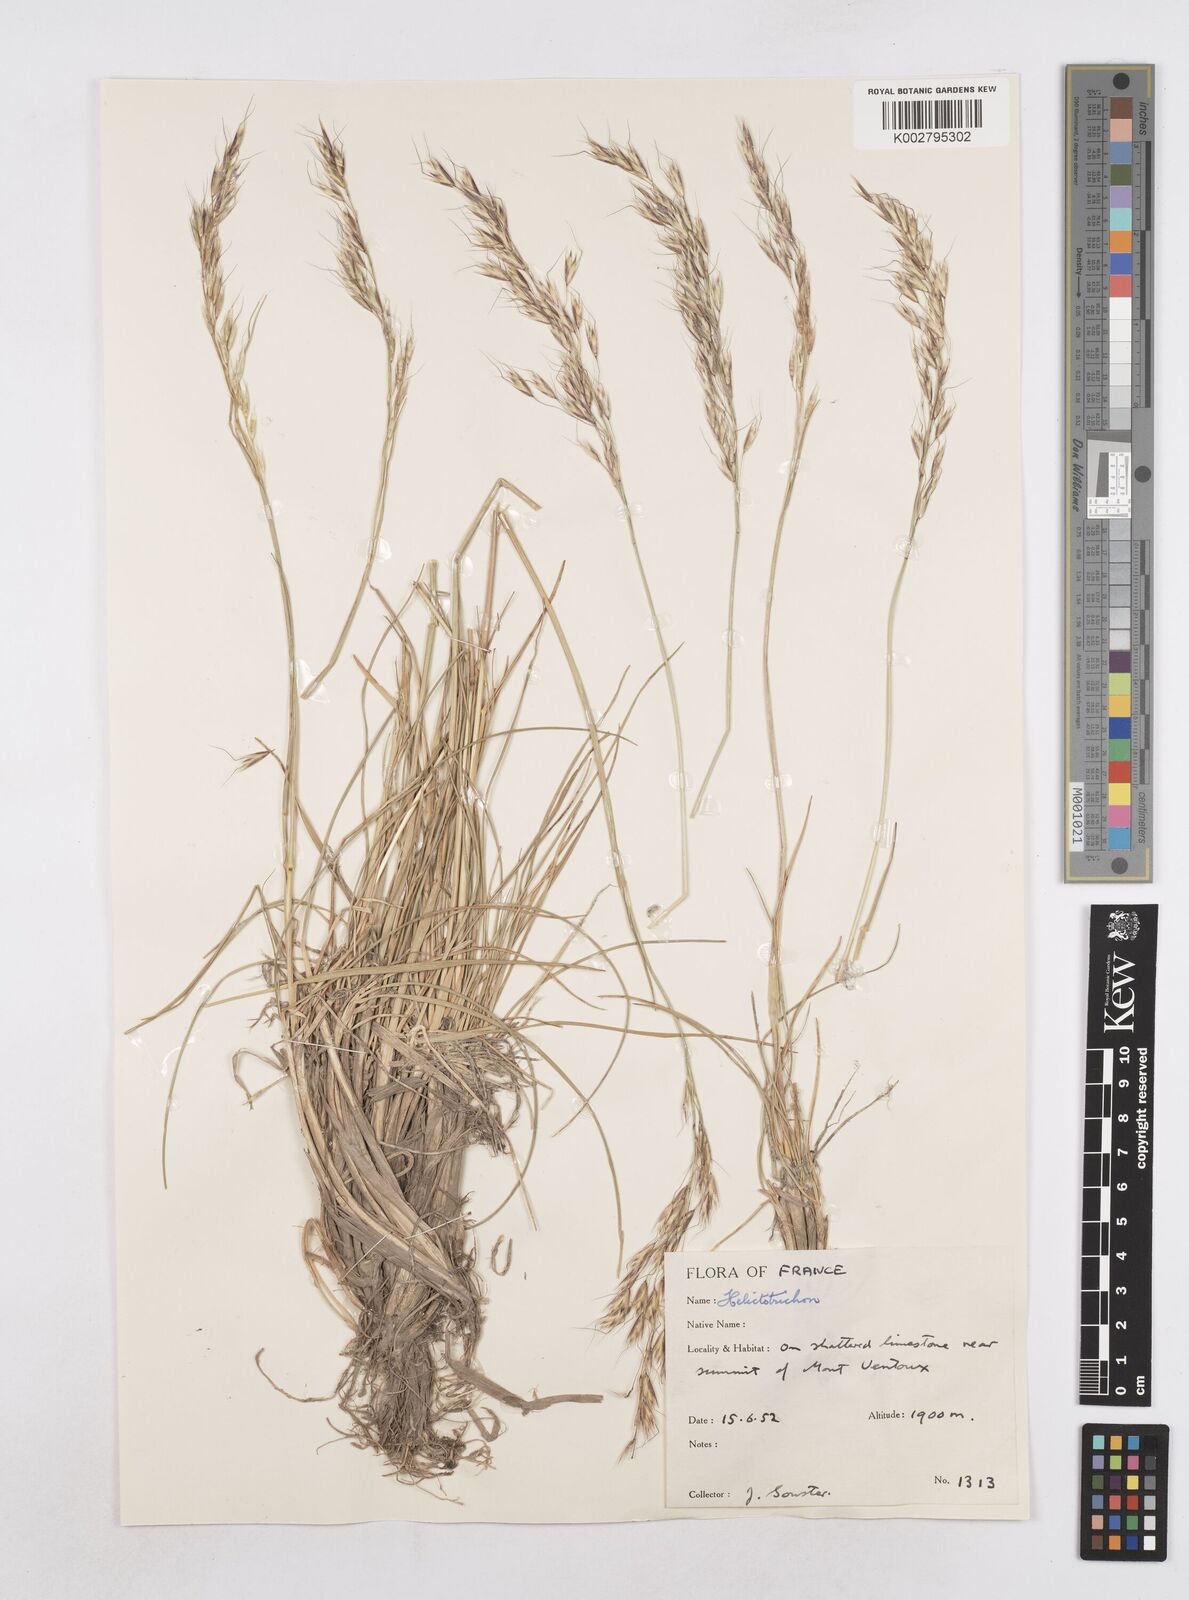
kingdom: Plantae
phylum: Tracheophyta
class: Liliopsida
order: Poales
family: Poaceae
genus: Helictotrichon
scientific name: Helictotrichon
